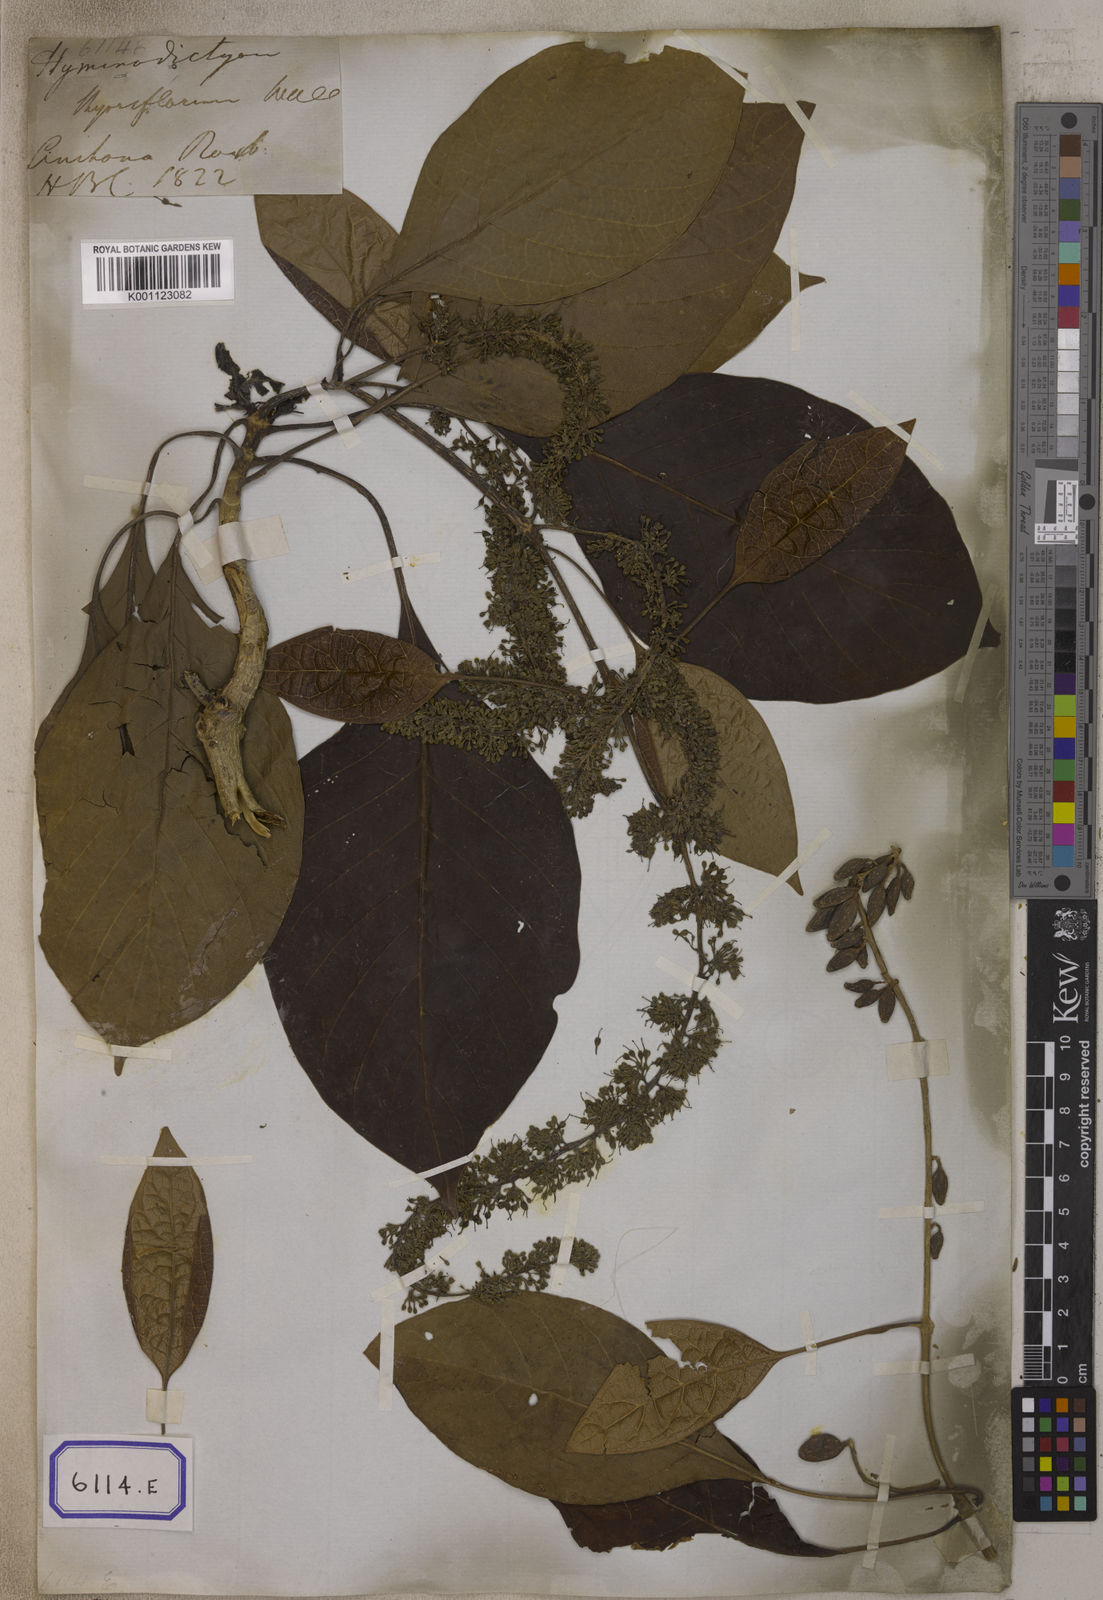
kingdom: Plantae
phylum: Tracheophyta
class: Magnoliopsida
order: Gentianales
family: Rubiaceae
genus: Hymenodictyon
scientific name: Hymenodictyon orixense
